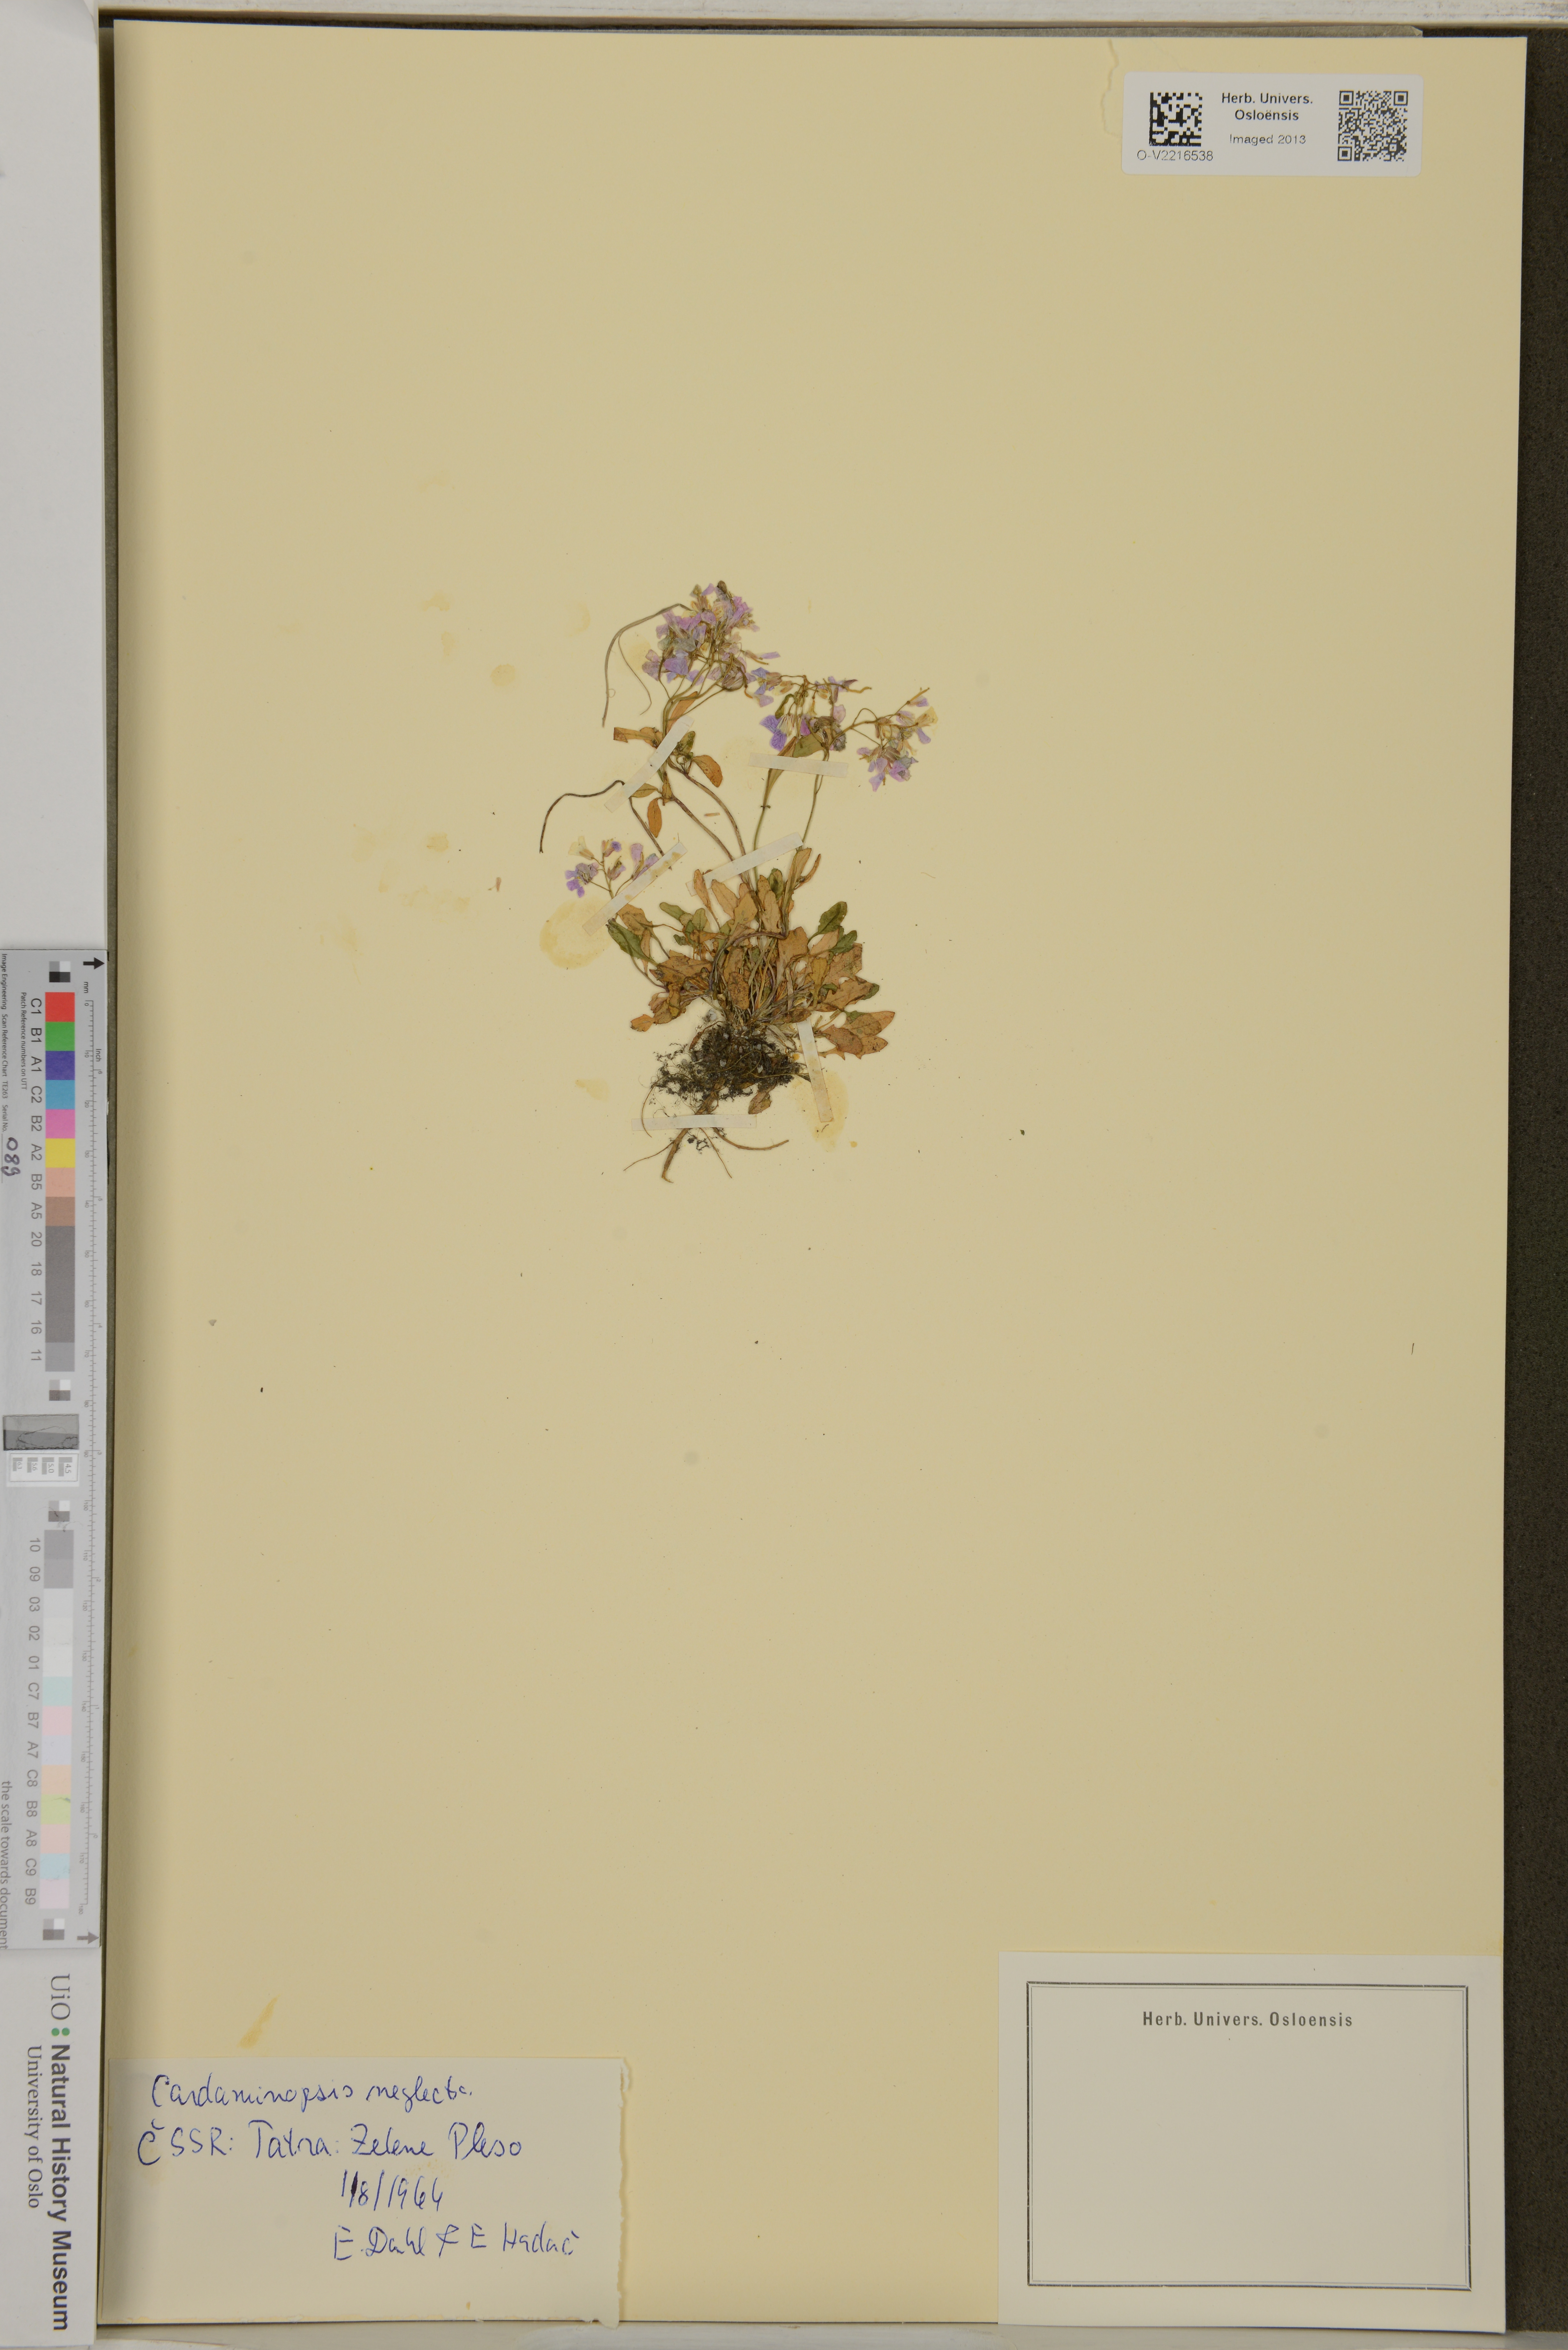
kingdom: Plantae
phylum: Tracheophyta
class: Magnoliopsida
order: Brassicales
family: Brassicaceae
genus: Arabidopsis
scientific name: Arabidopsis neglecta
